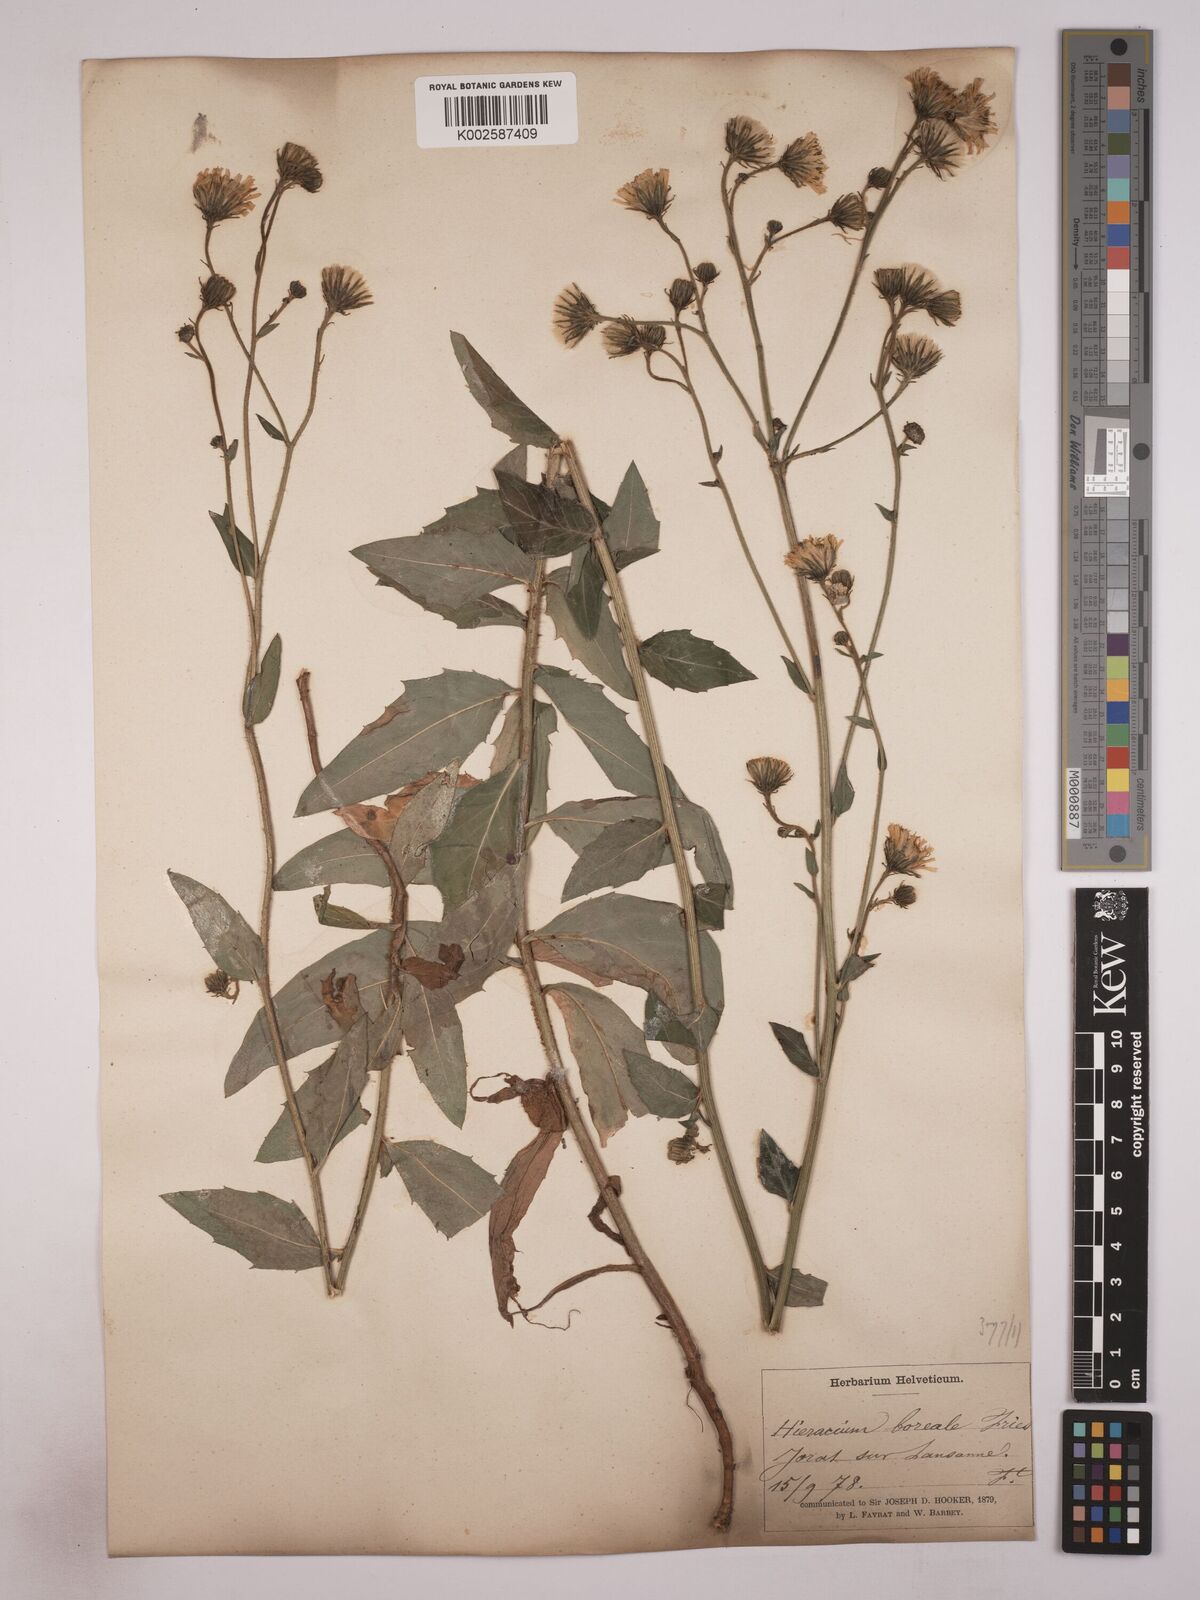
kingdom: Plantae
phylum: Tracheophyta
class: Magnoliopsida
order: Asterales
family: Asteraceae
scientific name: Asteraceae
